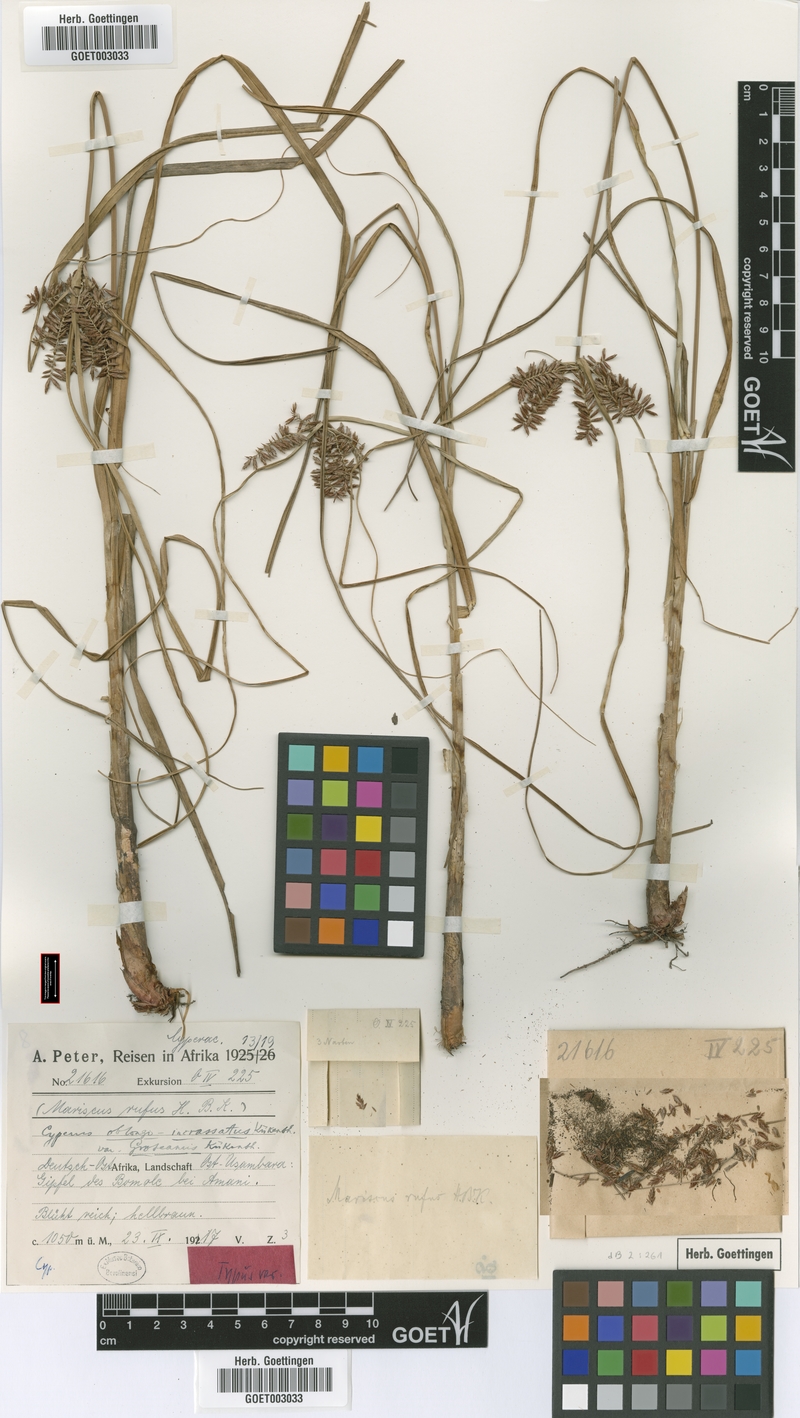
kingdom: Plantae
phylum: Tracheophyta
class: Liliopsida
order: Poales
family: Cyperaceae
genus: Cyperus
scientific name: Cyperus oblongoincrassatus
